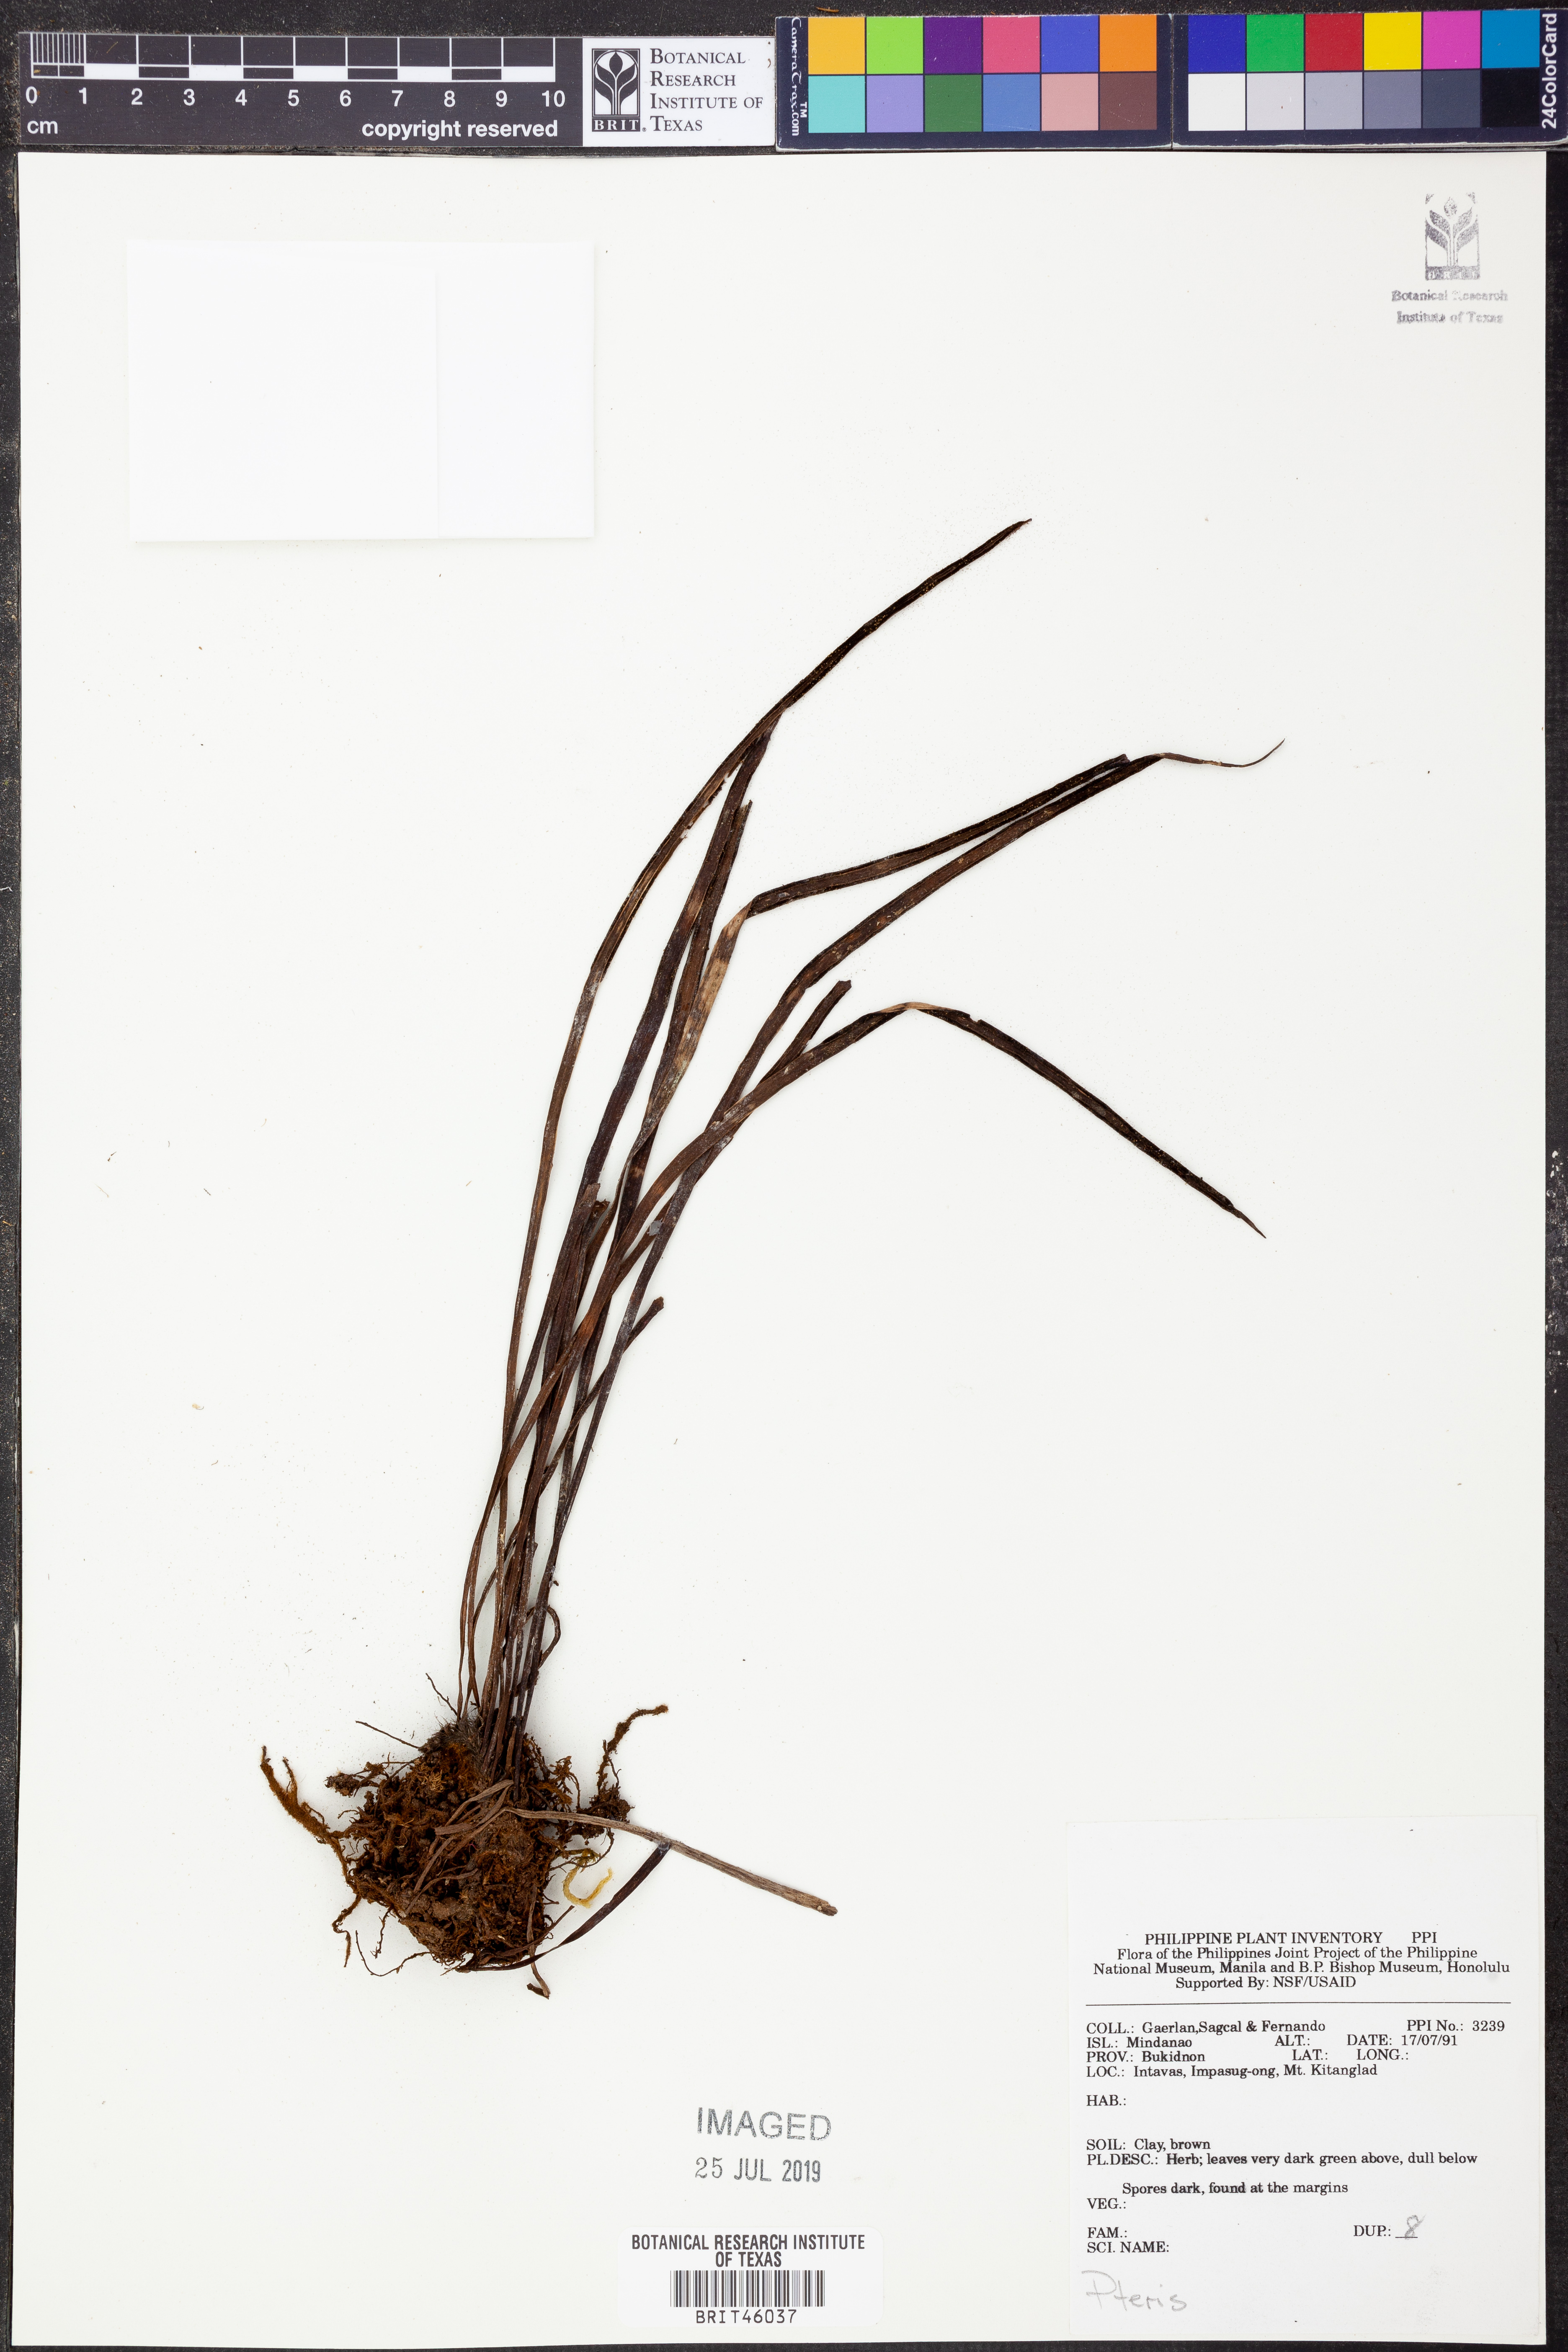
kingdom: Plantae
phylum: Tracheophyta
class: Polypodiopsida
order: Polypodiales
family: Pteridaceae
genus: Pteris
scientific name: Pteris
